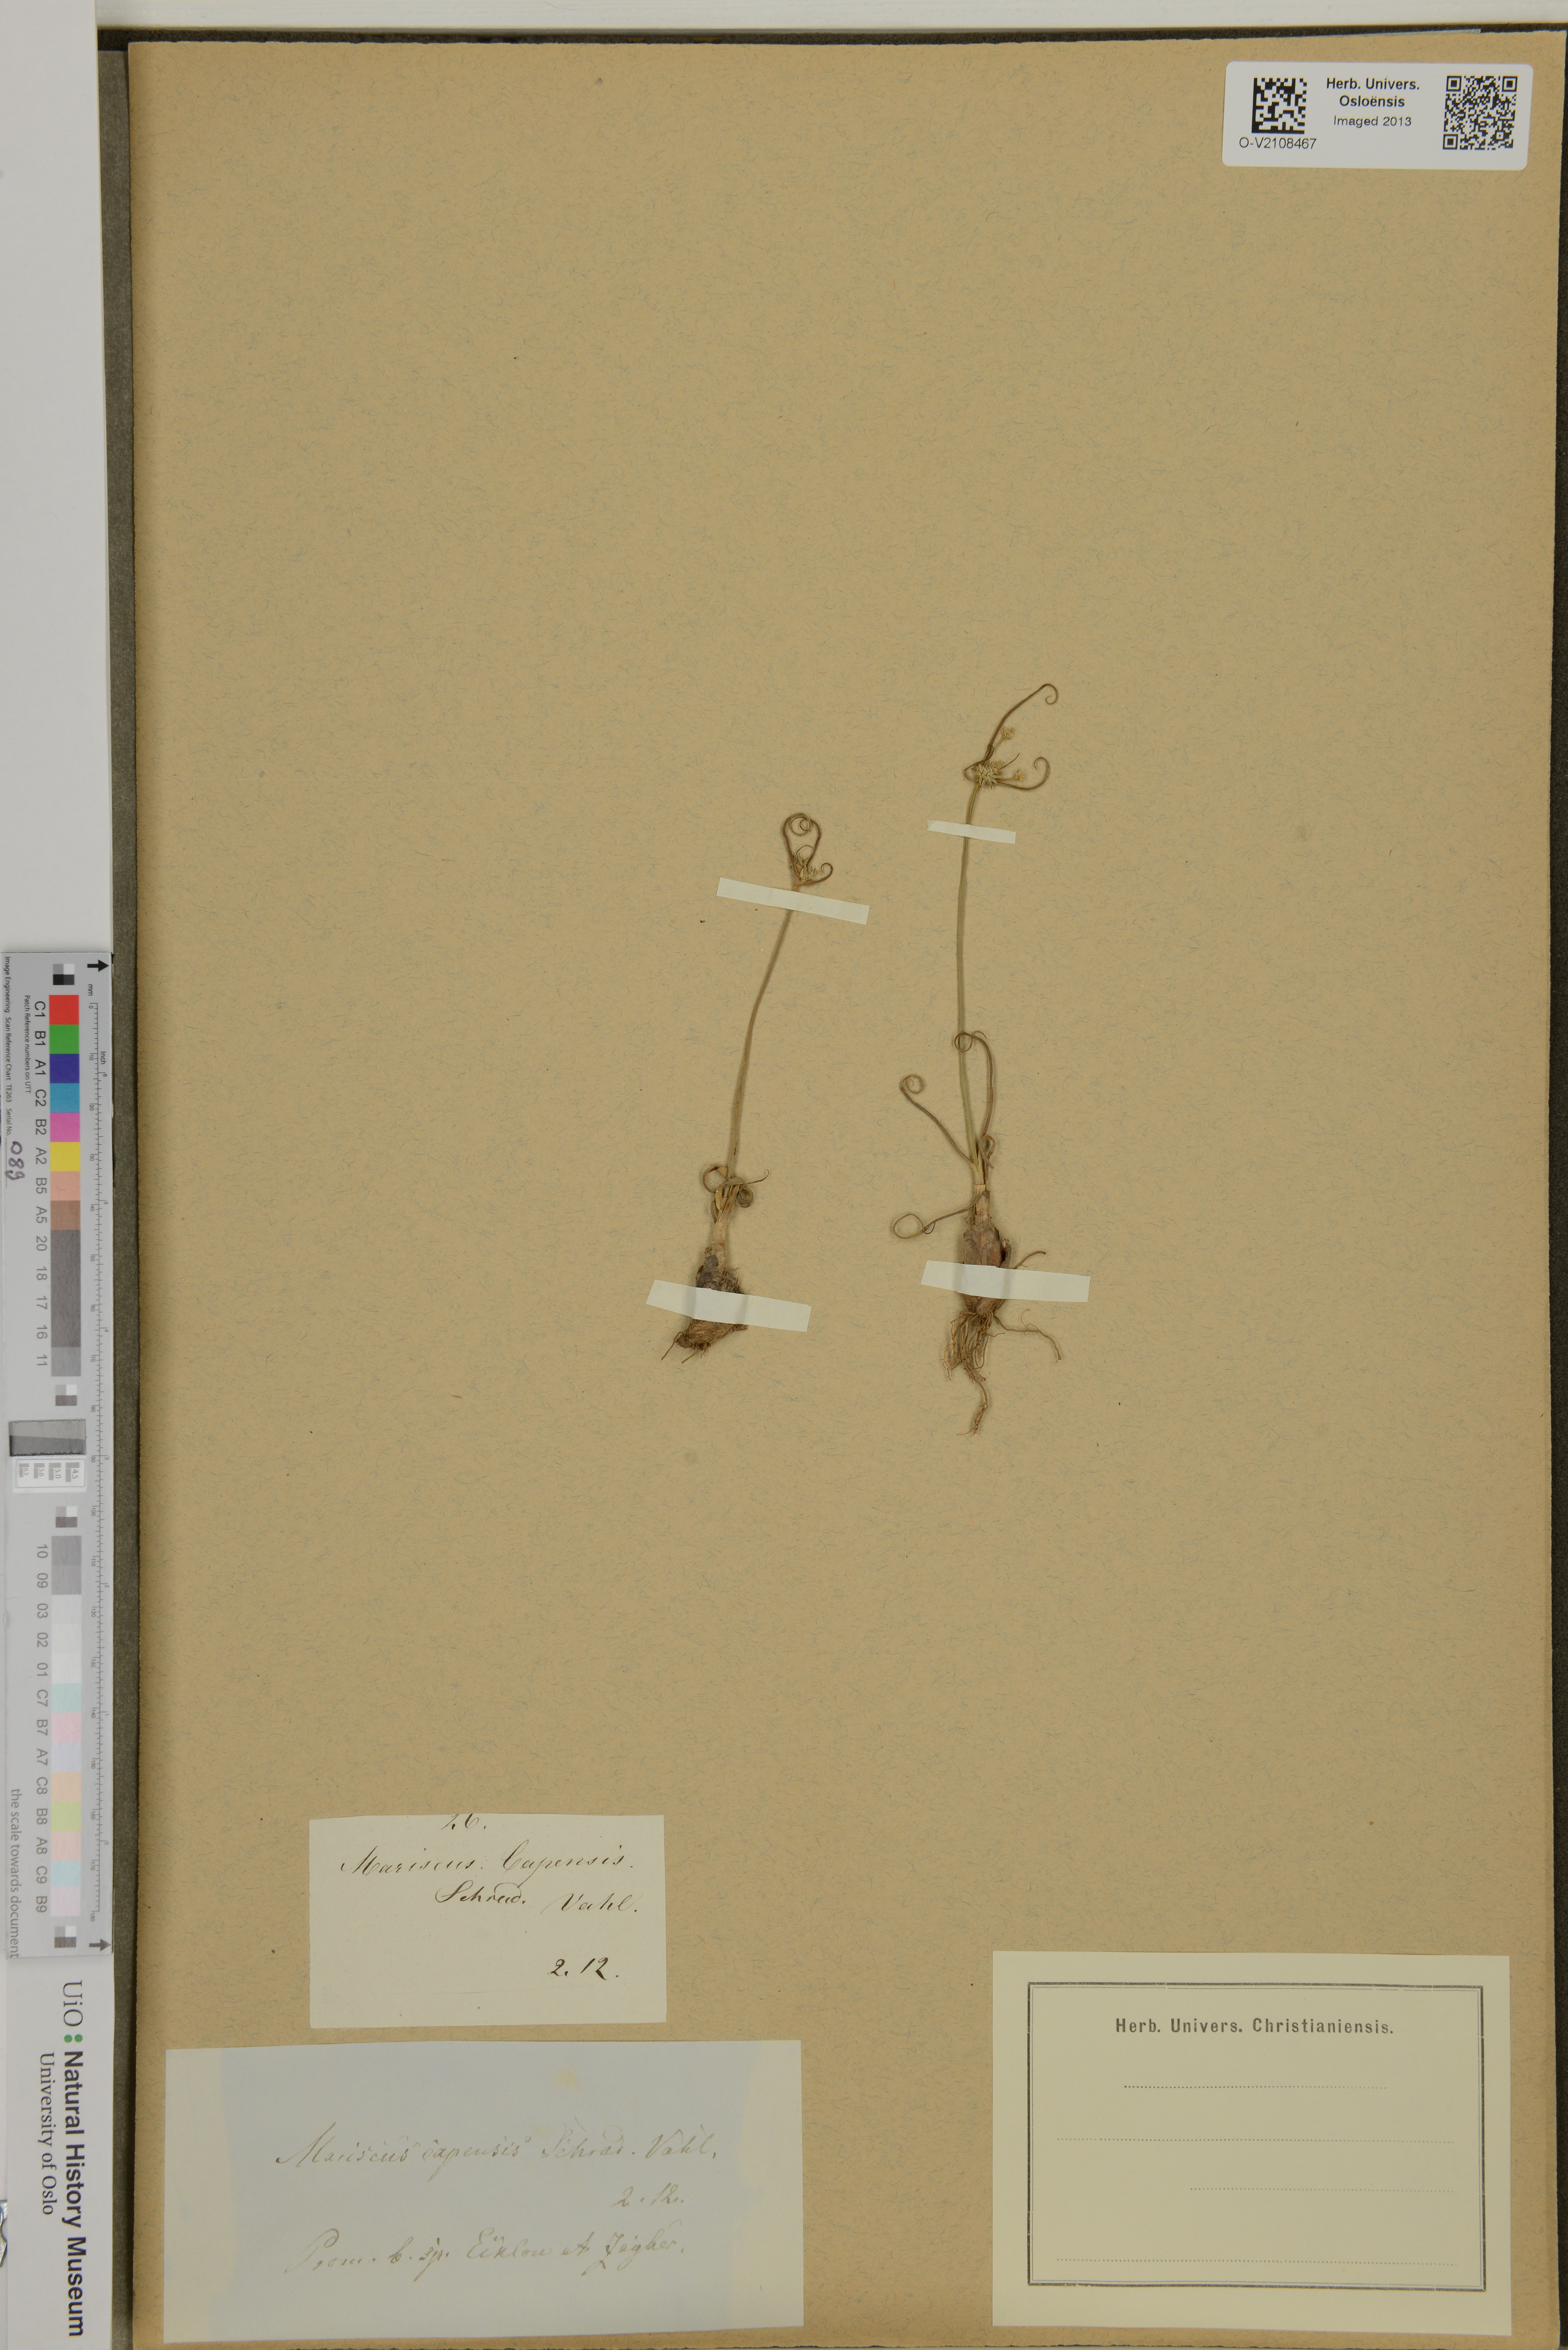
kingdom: Plantae
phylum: Tracheophyta
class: Liliopsida
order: Poales
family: Cyperaceae
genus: Cyperus
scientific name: Cyperus capensis
